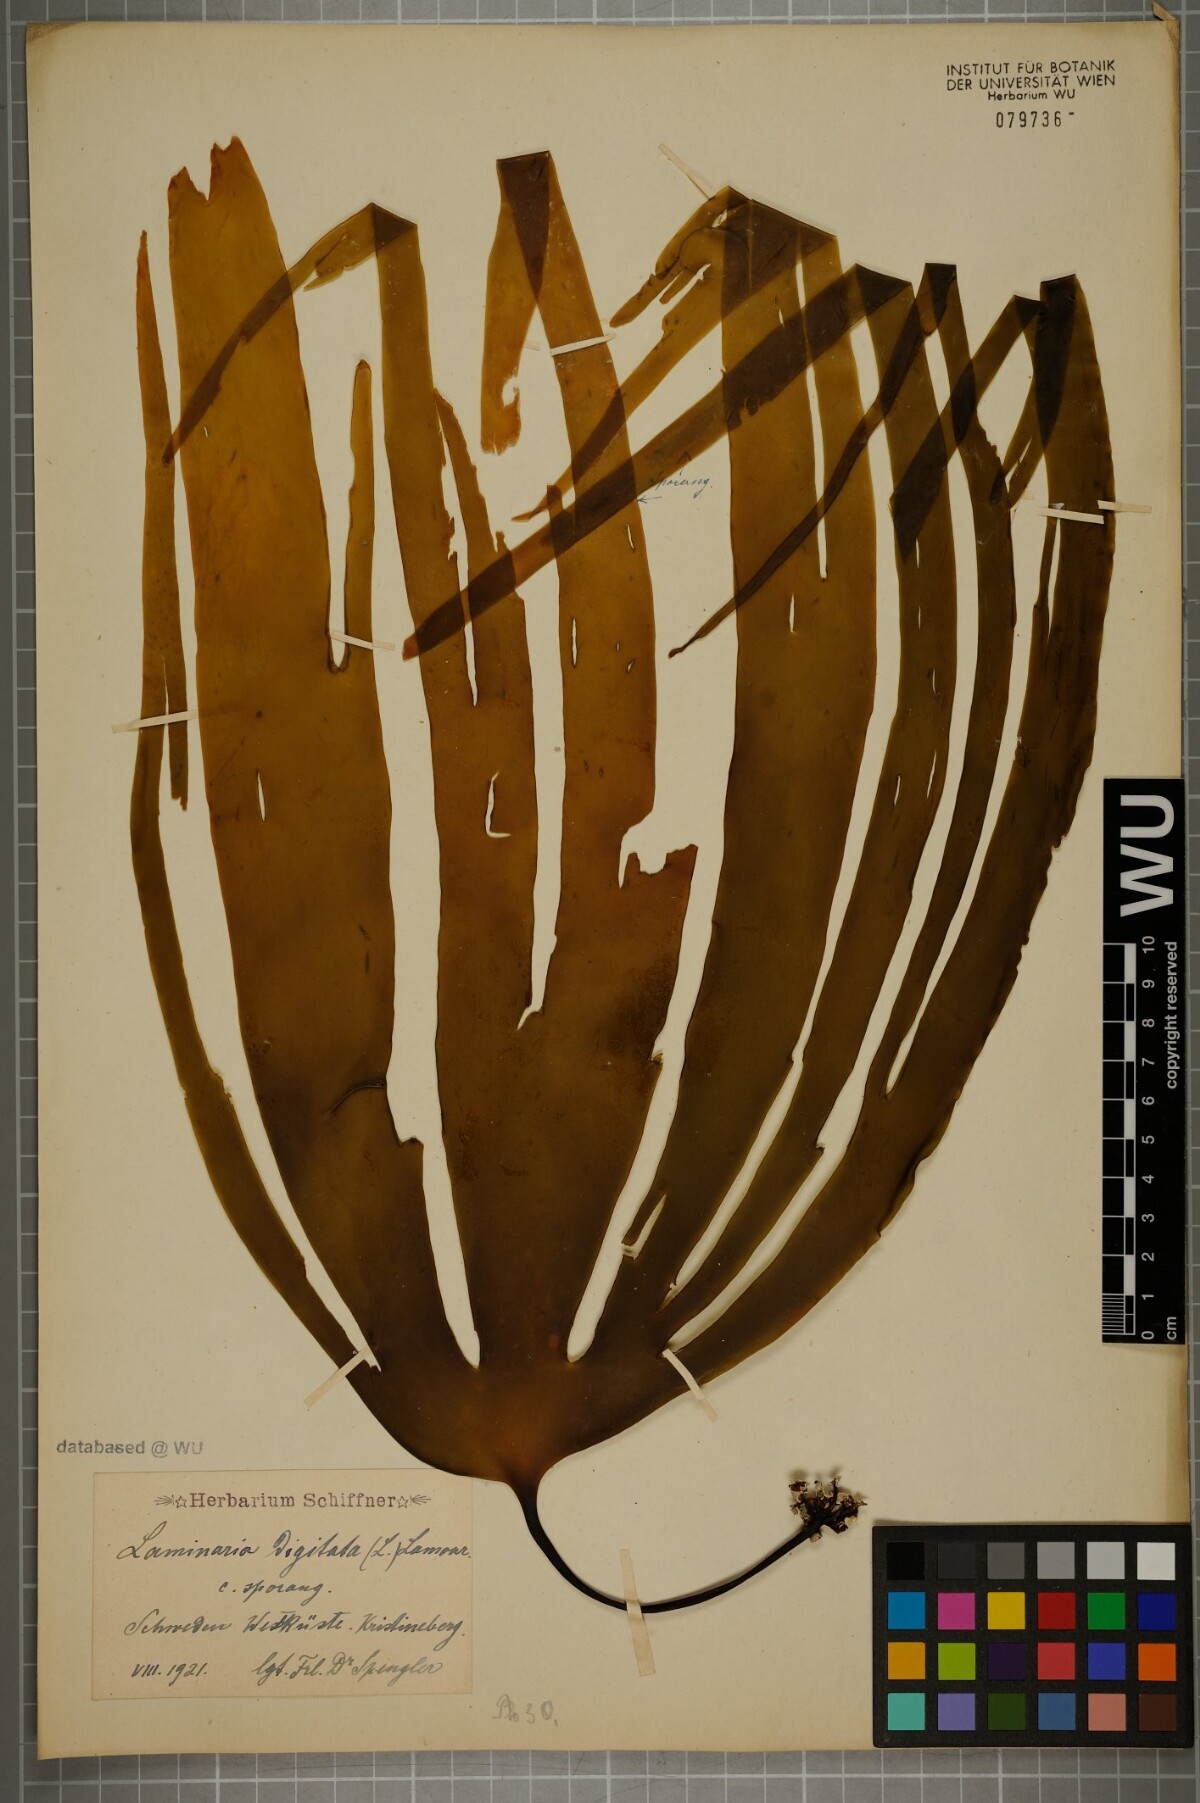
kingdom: Chromista
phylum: Ochrophyta
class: Phaeophyceae
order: Laminariales
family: Laminariaceae
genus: Laminaria
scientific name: Laminaria digitata
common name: Oarweed
